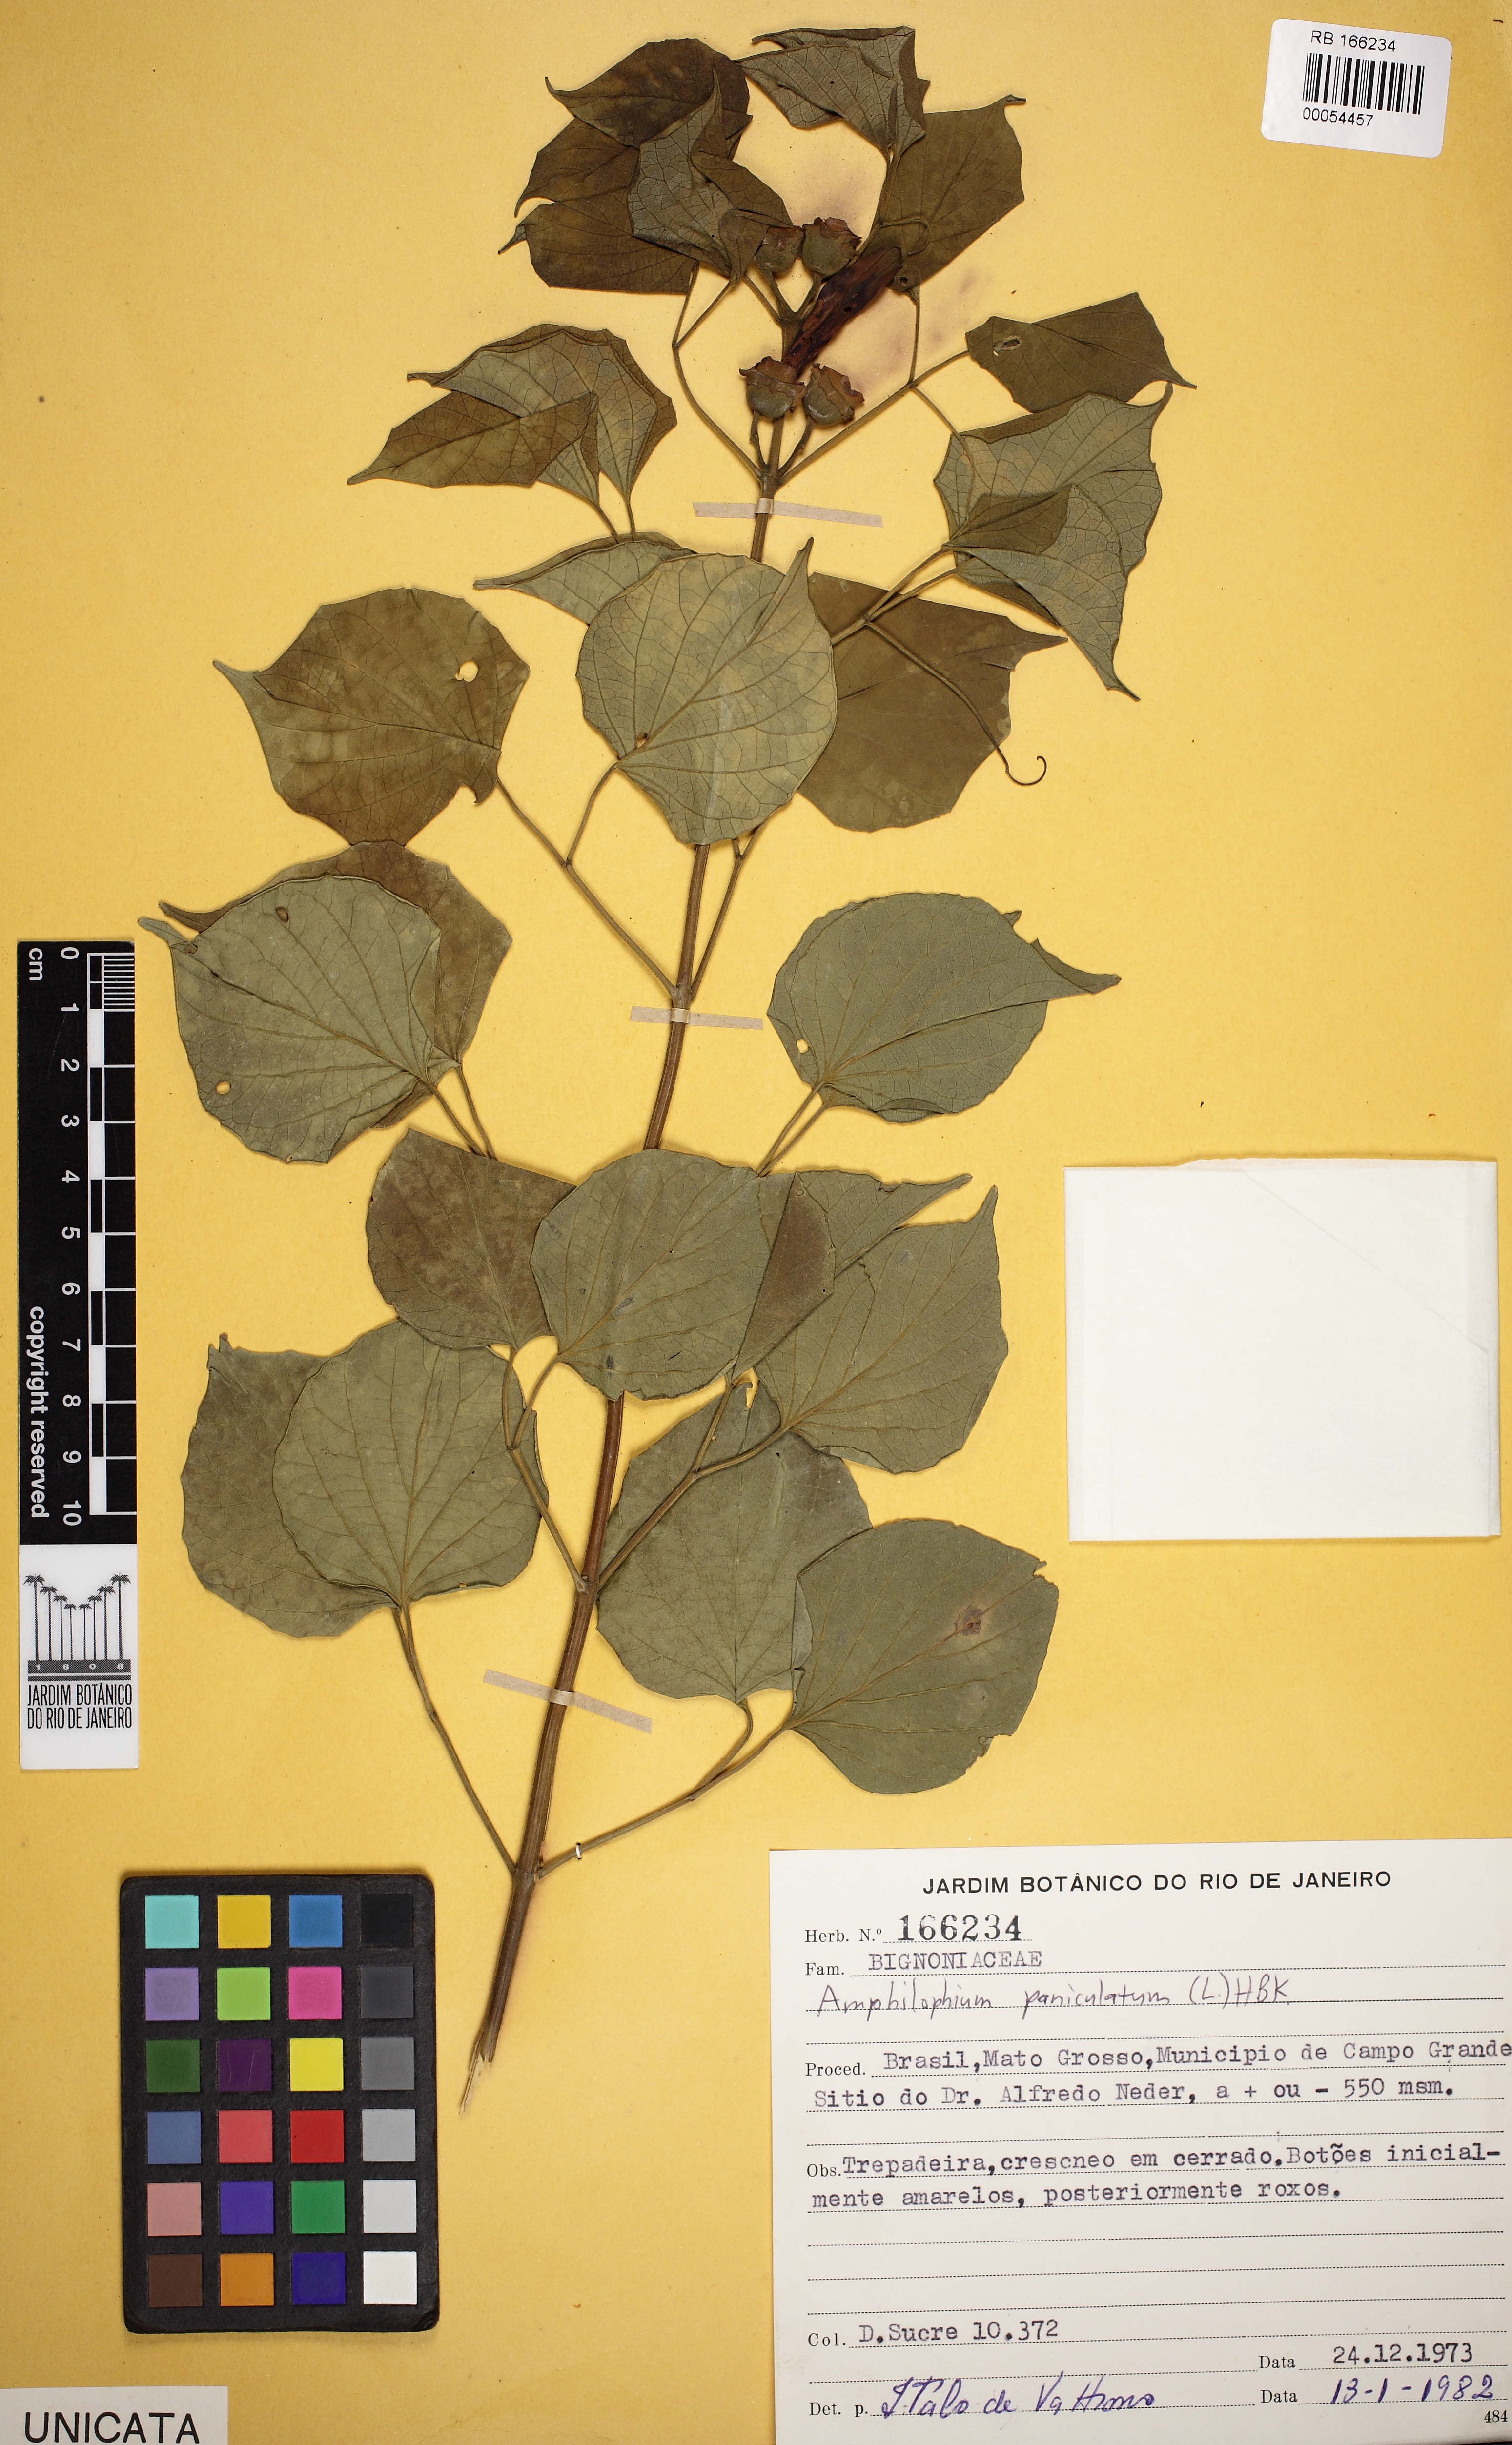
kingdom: Plantae
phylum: Tracheophyta
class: Magnoliopsida
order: Lamiales
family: Bignoniaceae
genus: Amphilophium
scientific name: Amphilophium paniculatum
